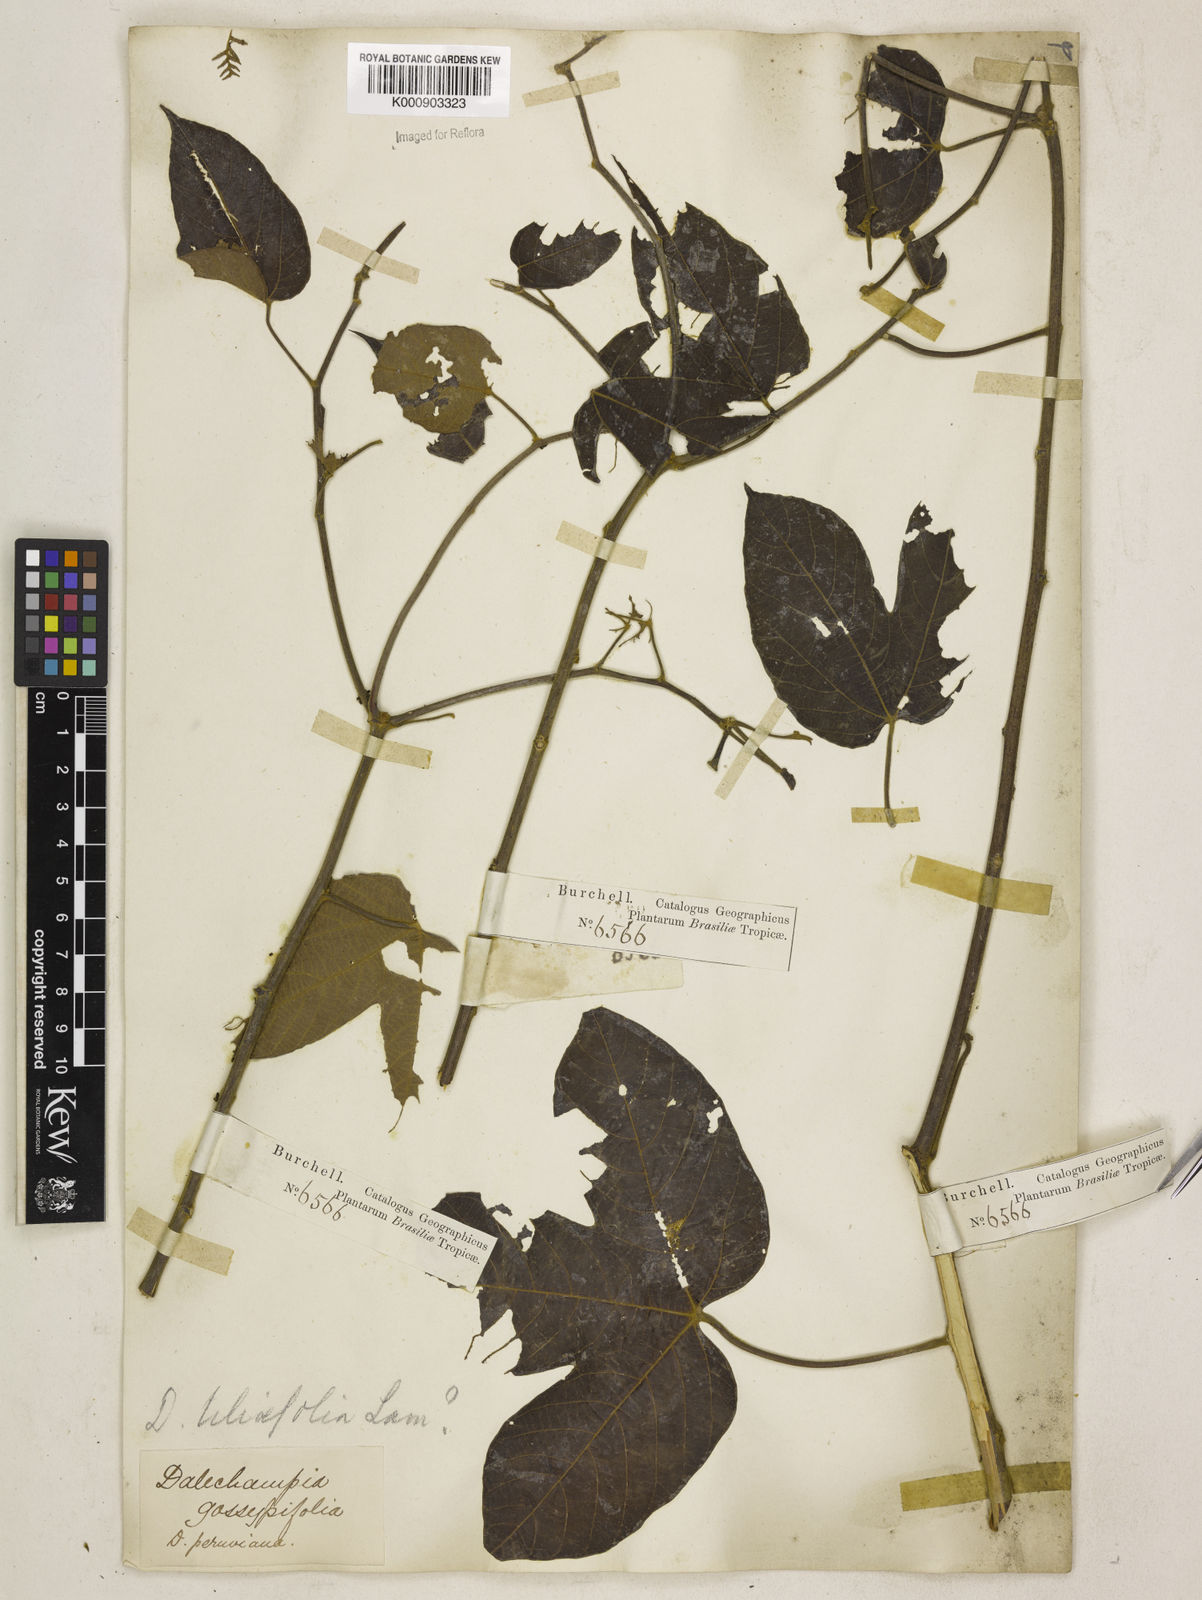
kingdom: Plantae
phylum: Tracheophyta
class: Magnoliopsida
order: Malpighiales
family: Euphorbiaceae
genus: Dalechampia
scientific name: Dalechampia tiliifolia
